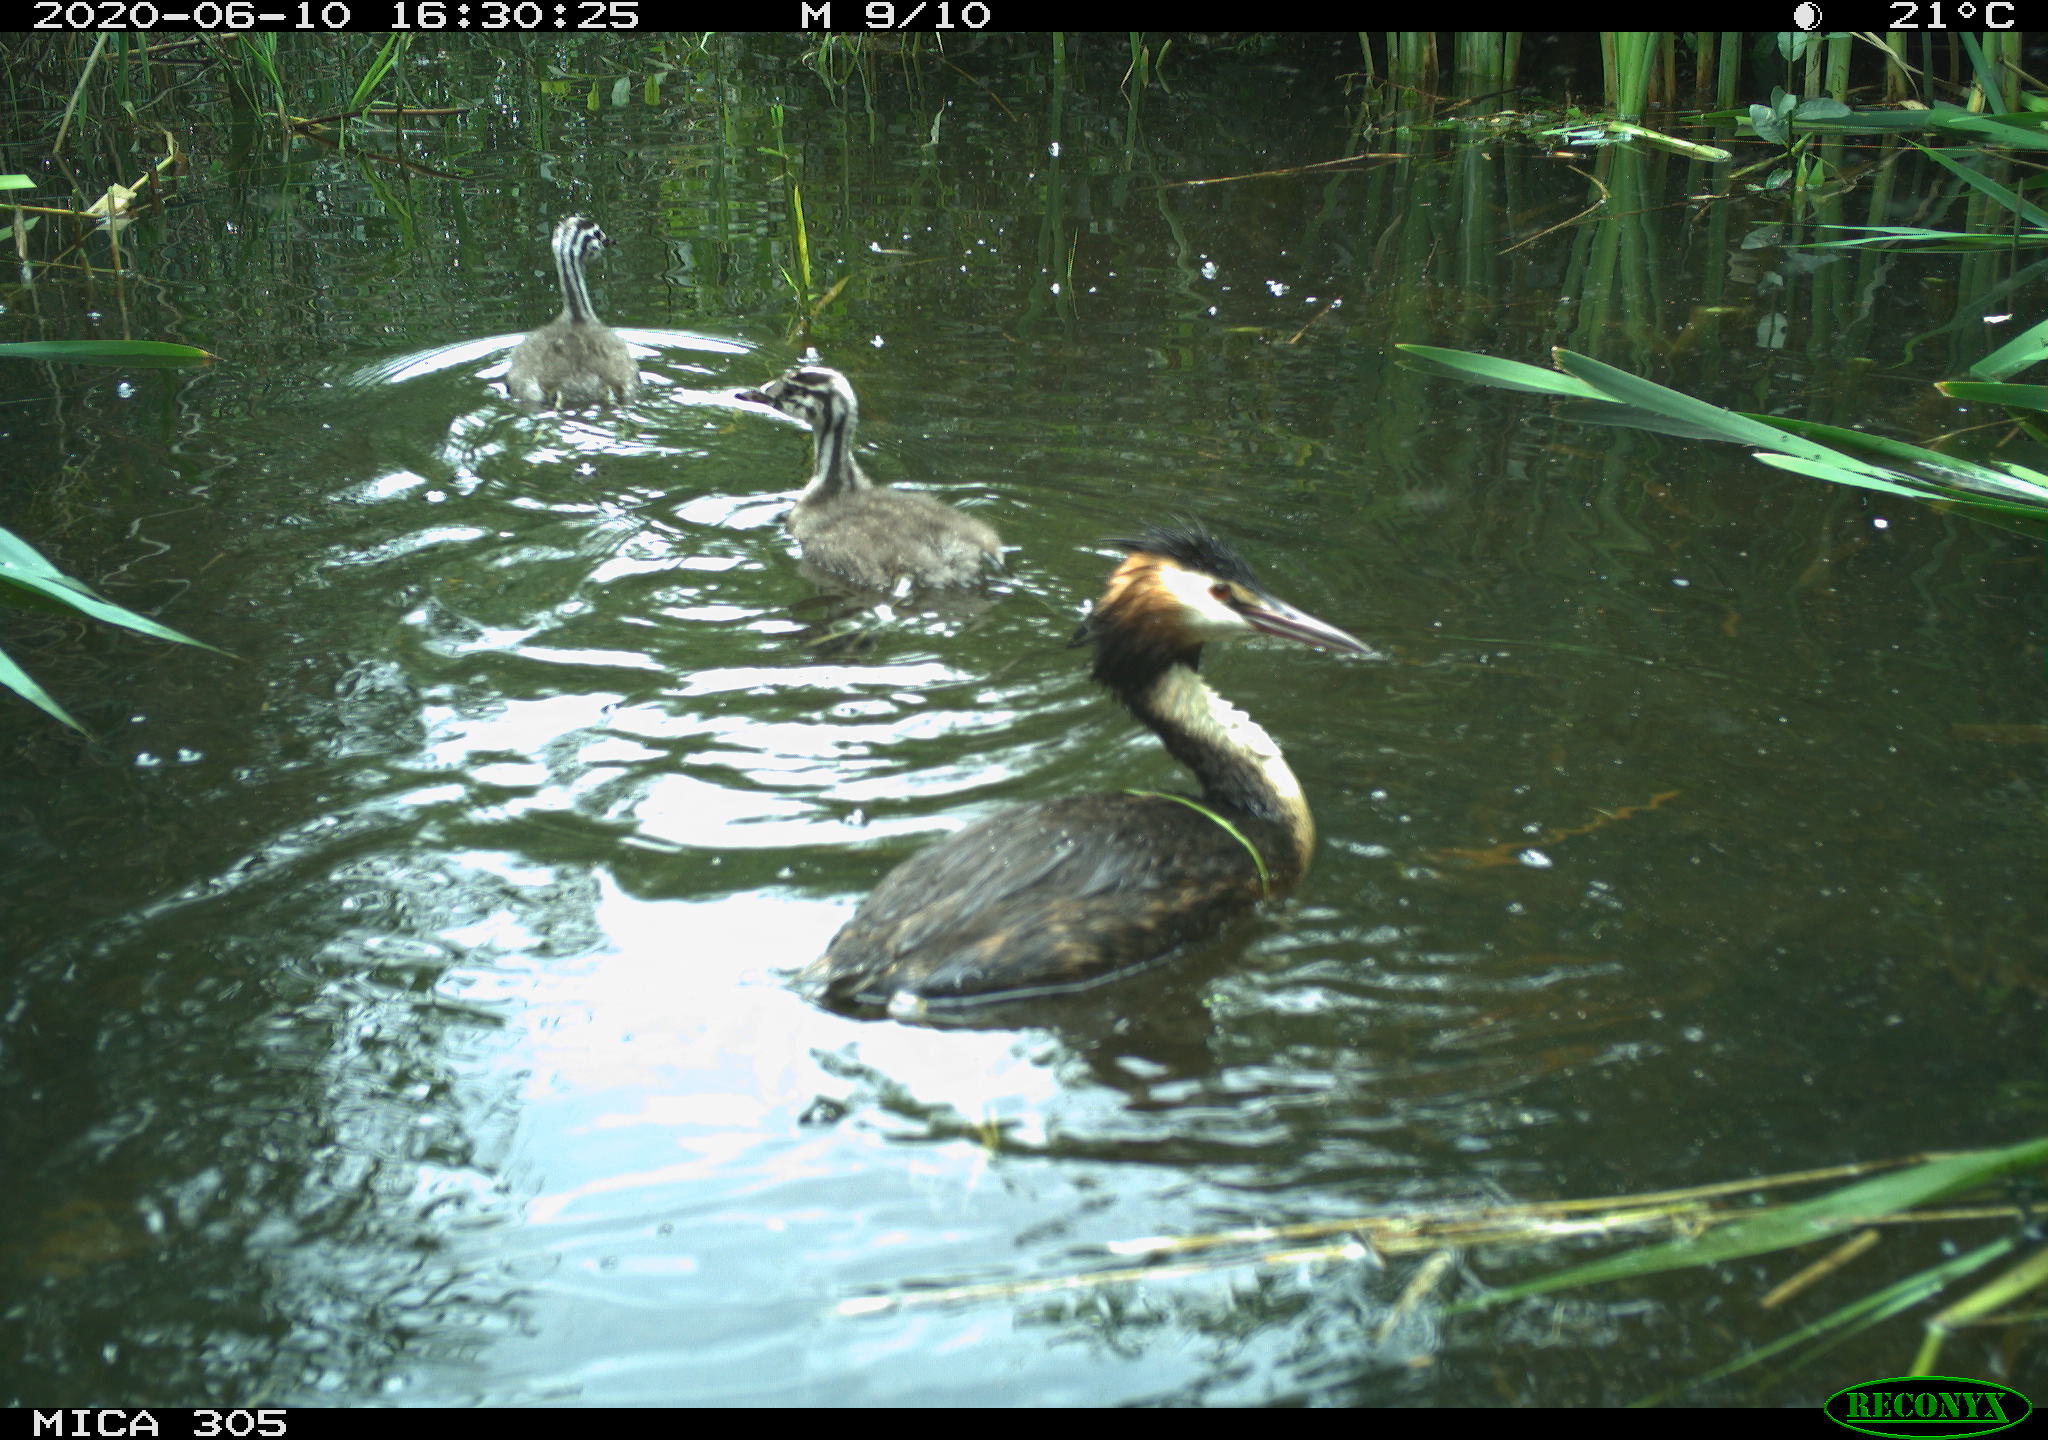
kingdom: Animalia
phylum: Chordata
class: Aves
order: Anseriformes
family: Anatidae
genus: Anas
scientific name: Anas platyrhynchos
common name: Mallard
